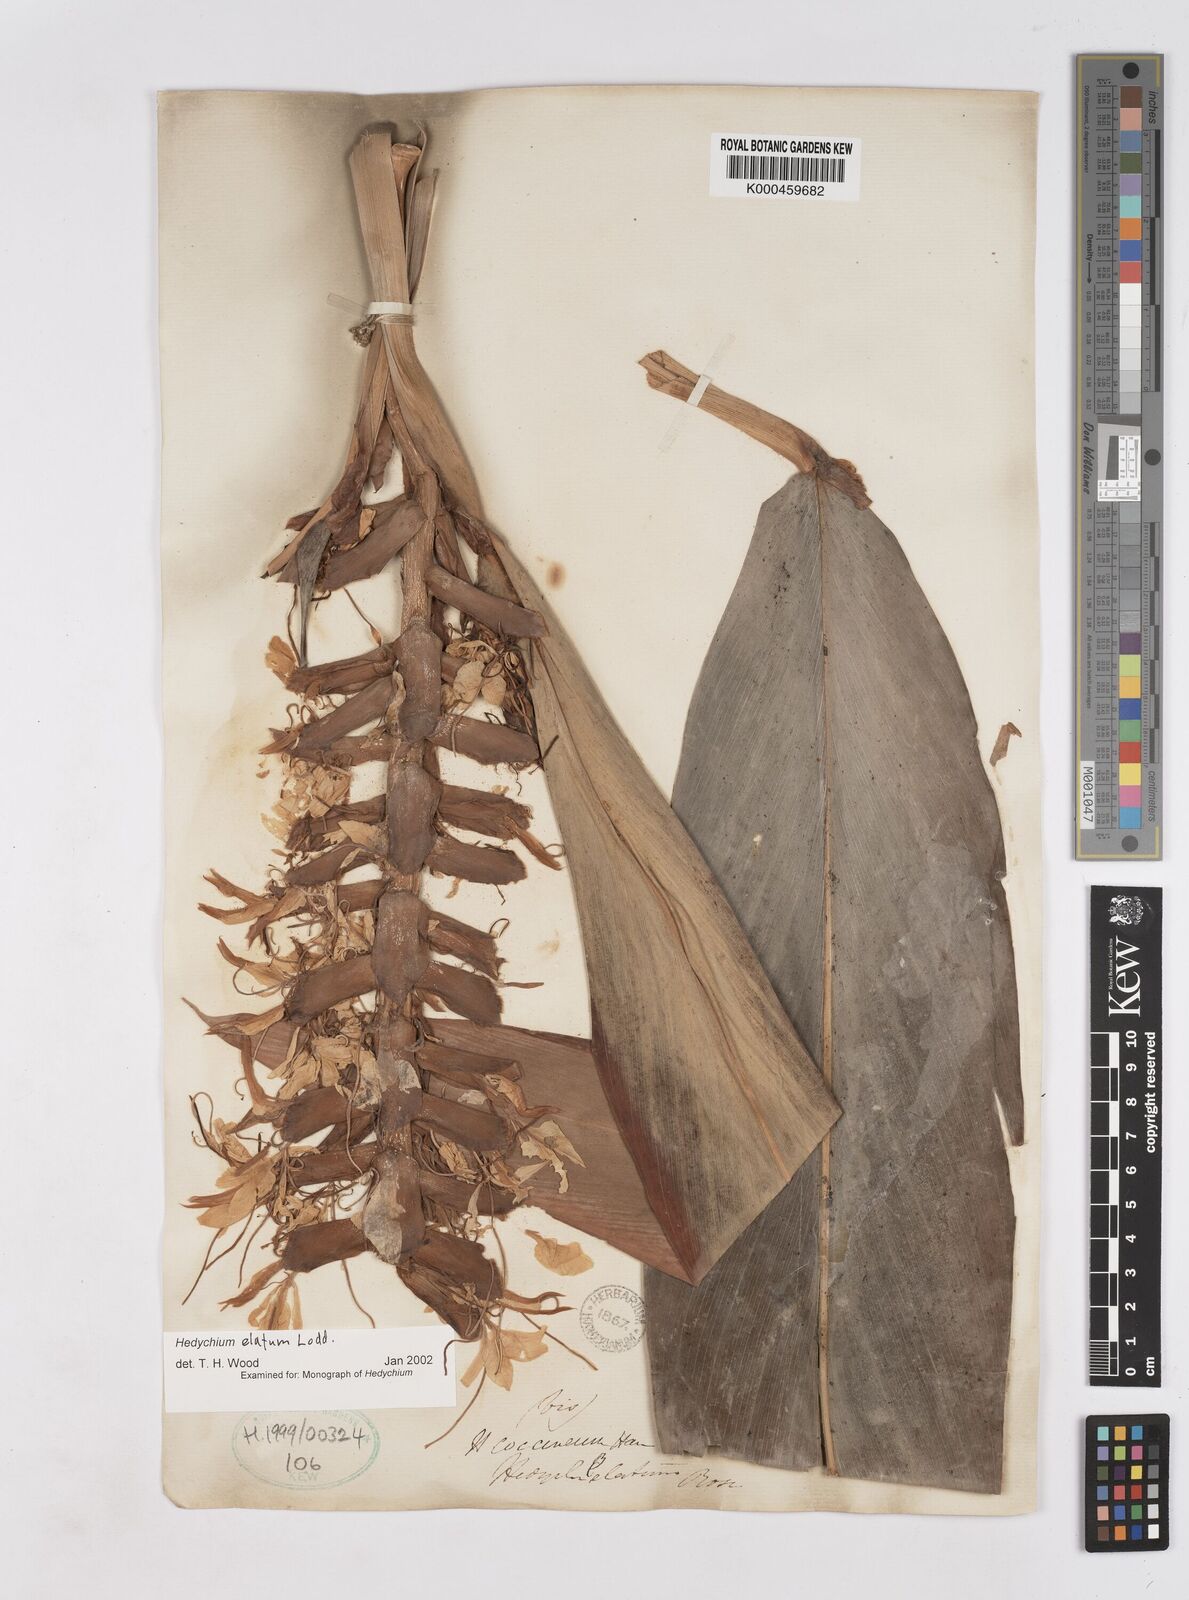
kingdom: Plantae
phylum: Tracheophyta
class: Liliopsida
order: Zingiberales
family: Zingiberaceae
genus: Hedychium
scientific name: Hedychium elatum
